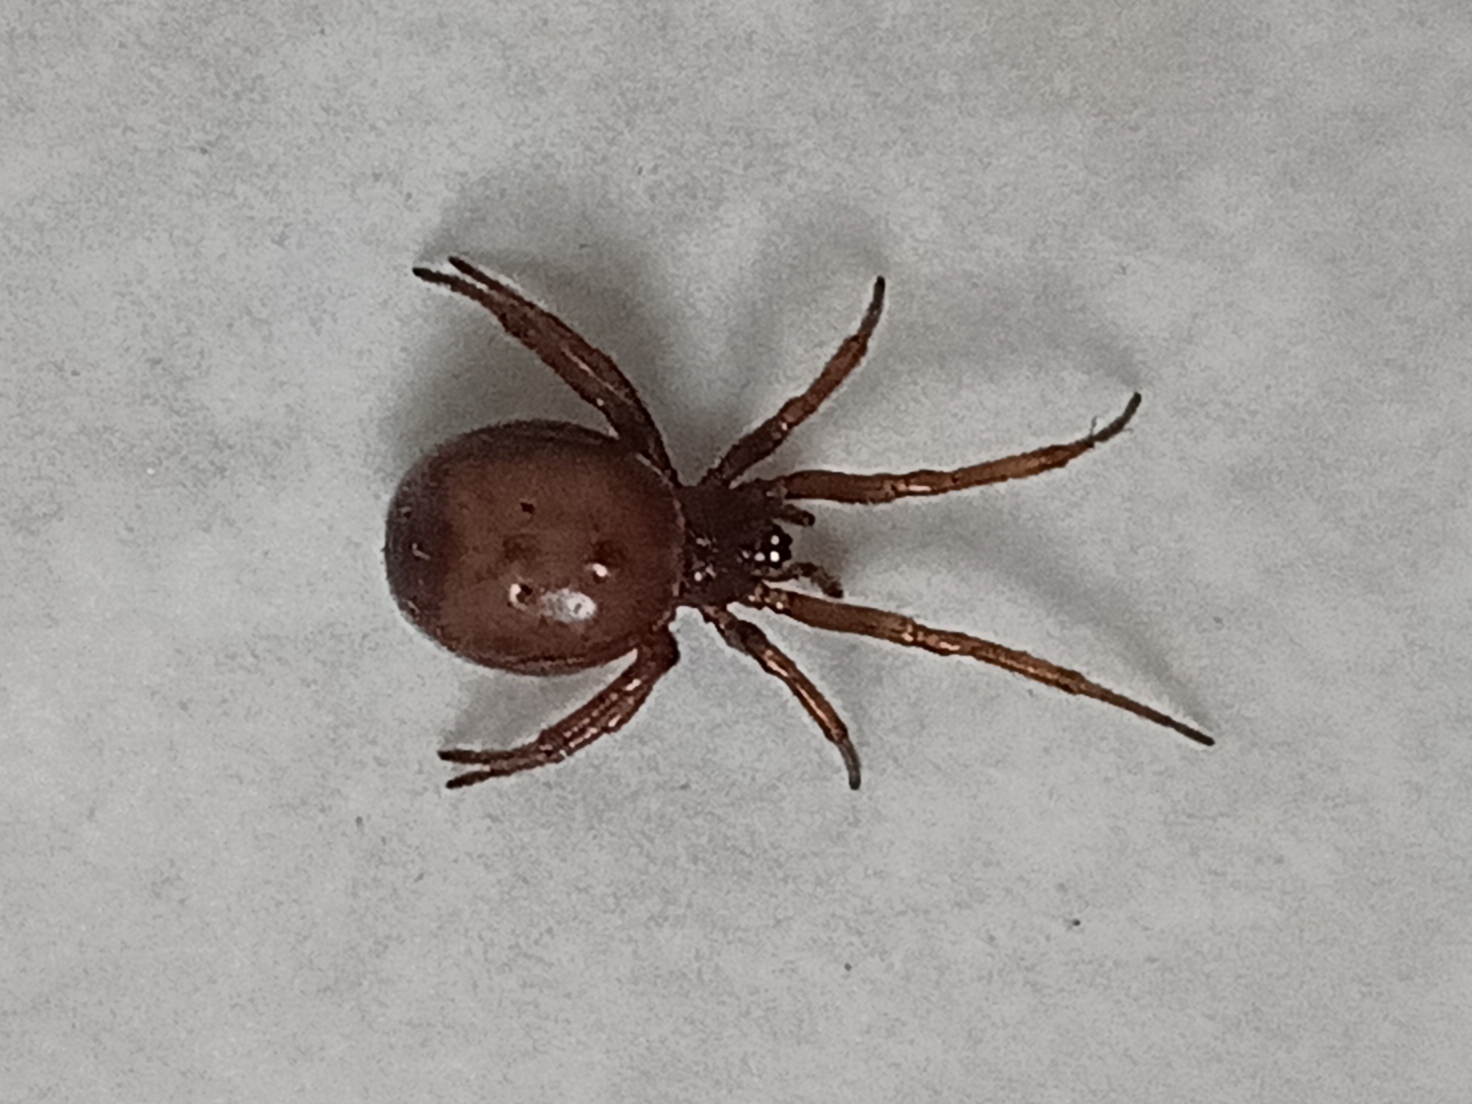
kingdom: Animalia
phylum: Arthropoda
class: Arachnida
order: Araneae
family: Theridiidae
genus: Steatoda
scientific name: Steatoda bipunctata
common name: Fedtedderkop
